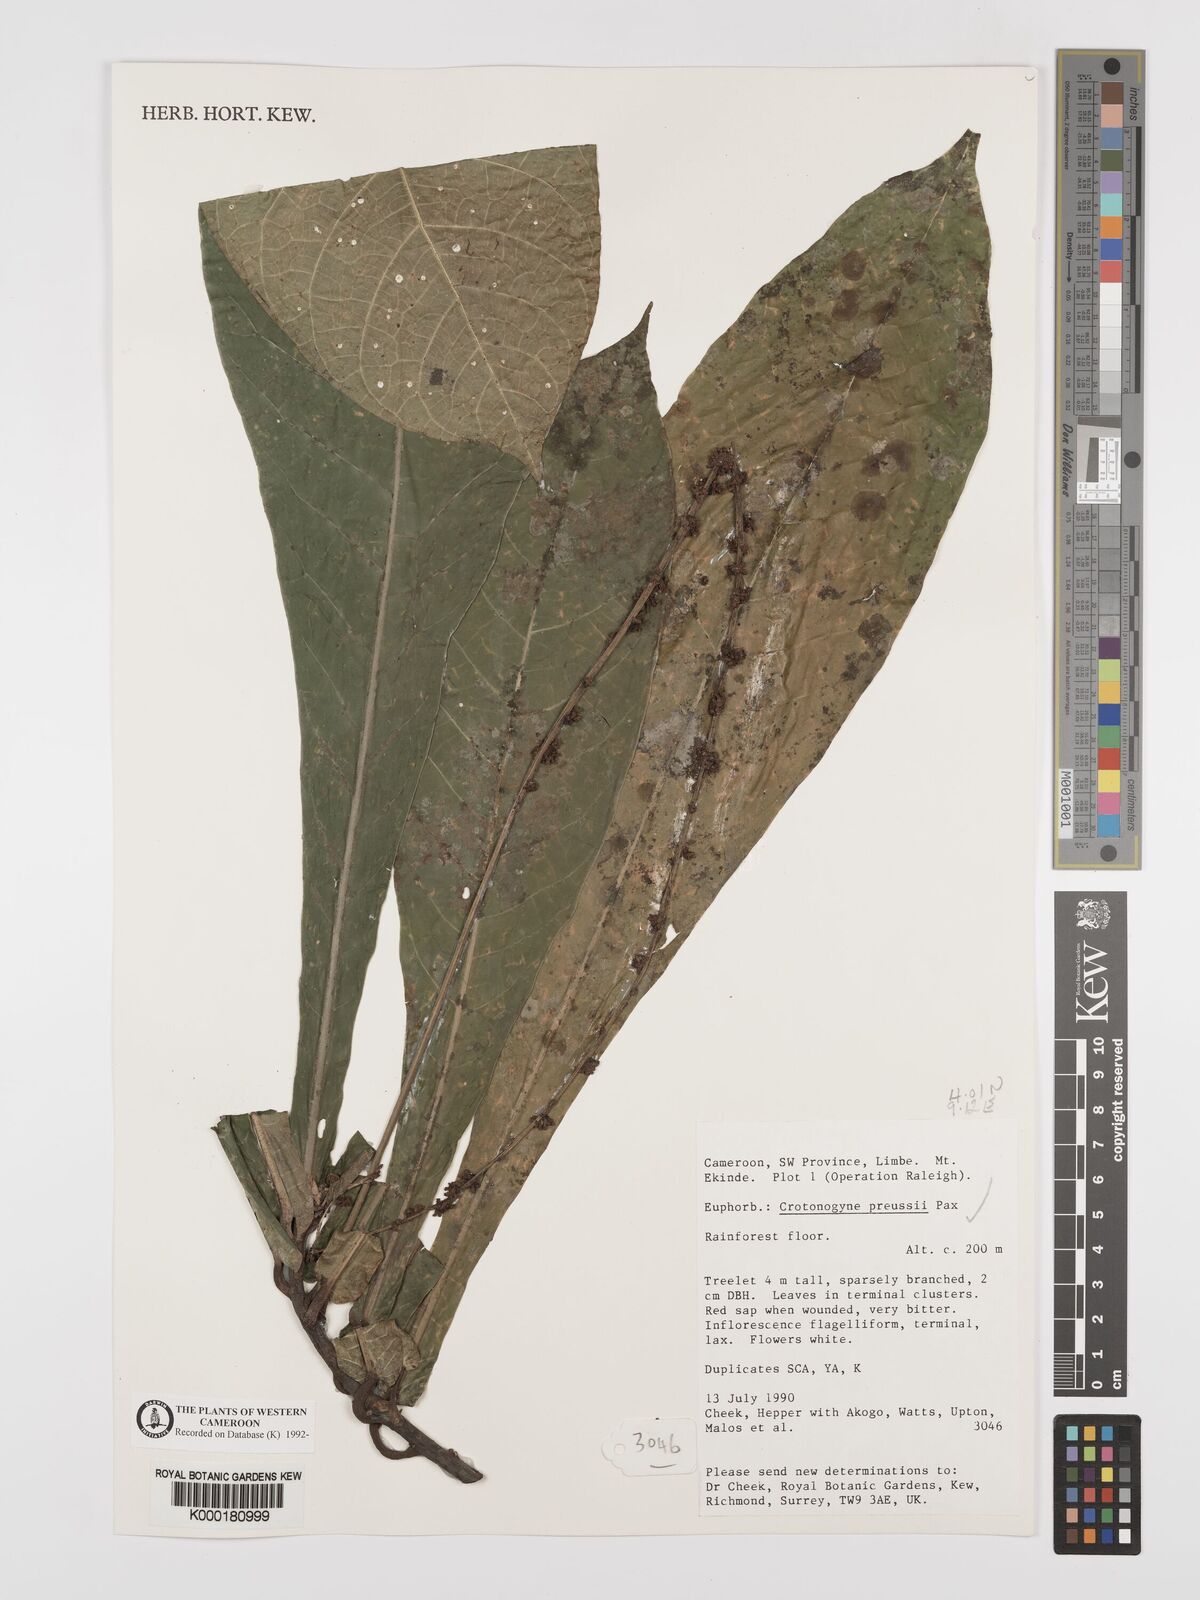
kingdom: Plantae
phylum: Tracheophyta
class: Magnoliopsida
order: Malpighiales
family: Euphorbiaceae
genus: Crotonogyne
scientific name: Crotonogyne preussii
